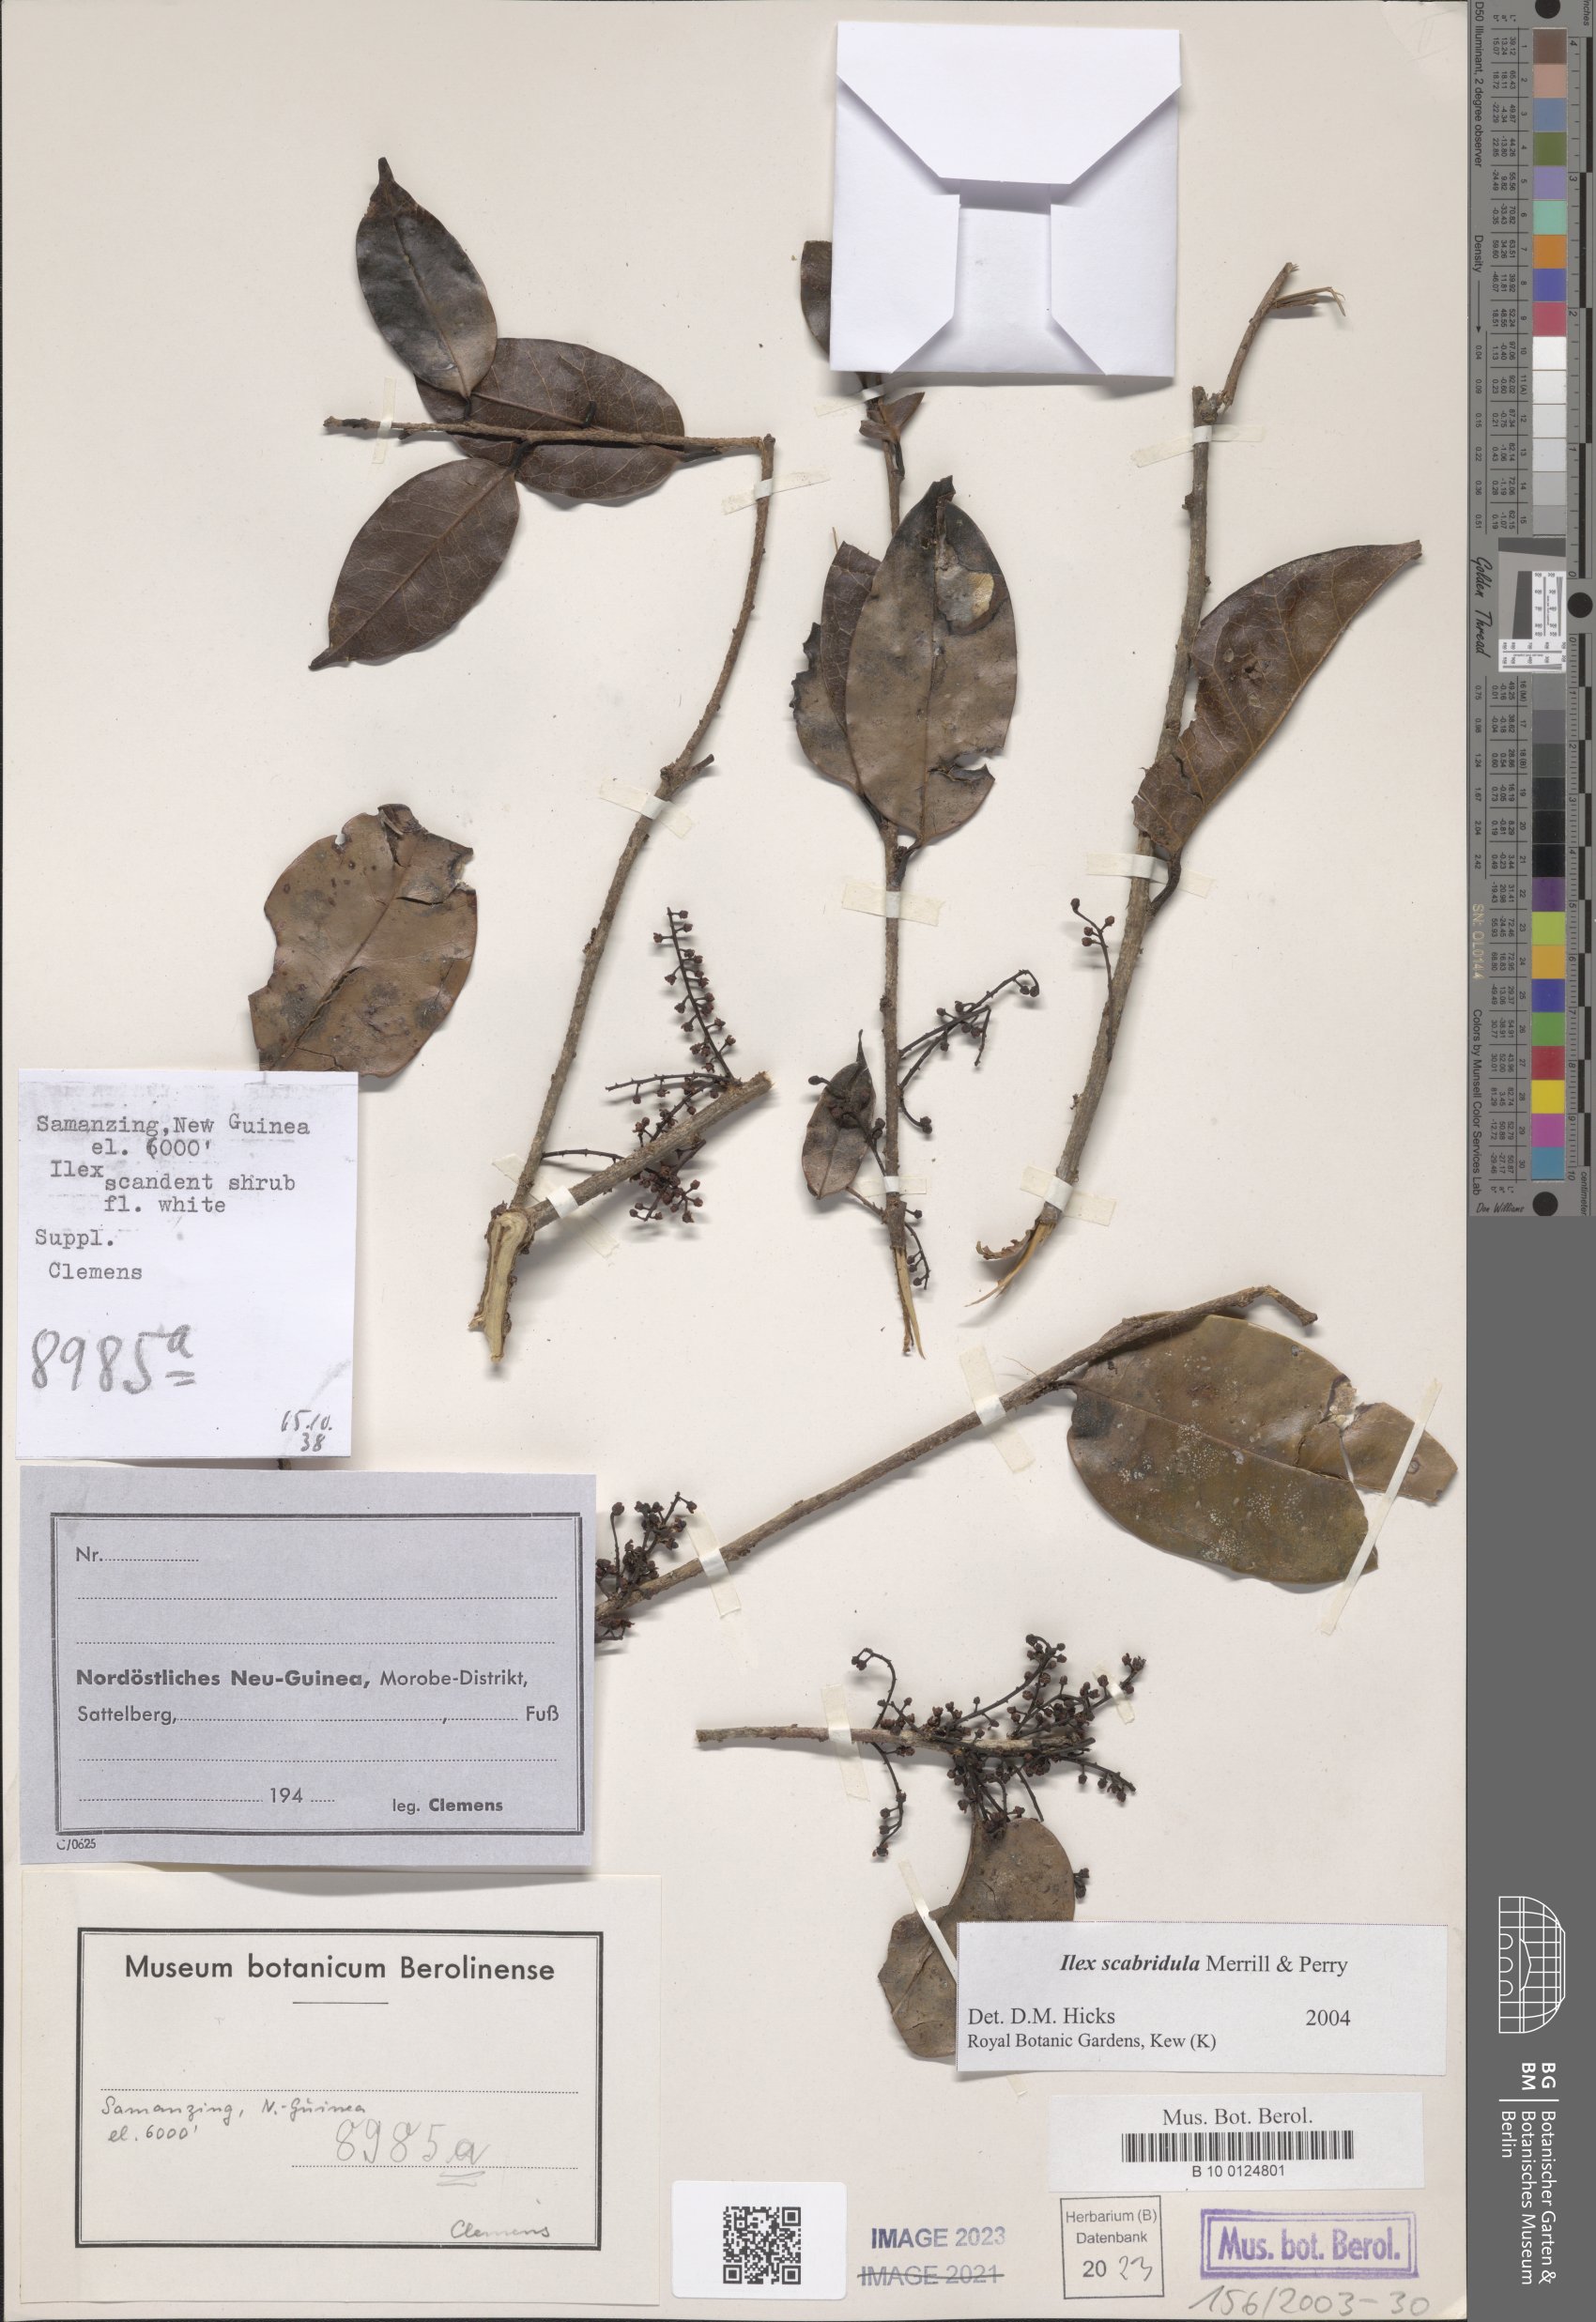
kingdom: Plantae
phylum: Tracheophyta
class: Magnoliopsida
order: Aquifoliales
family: Aquifoliaceae
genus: Ilex
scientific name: Ilex scabridula
